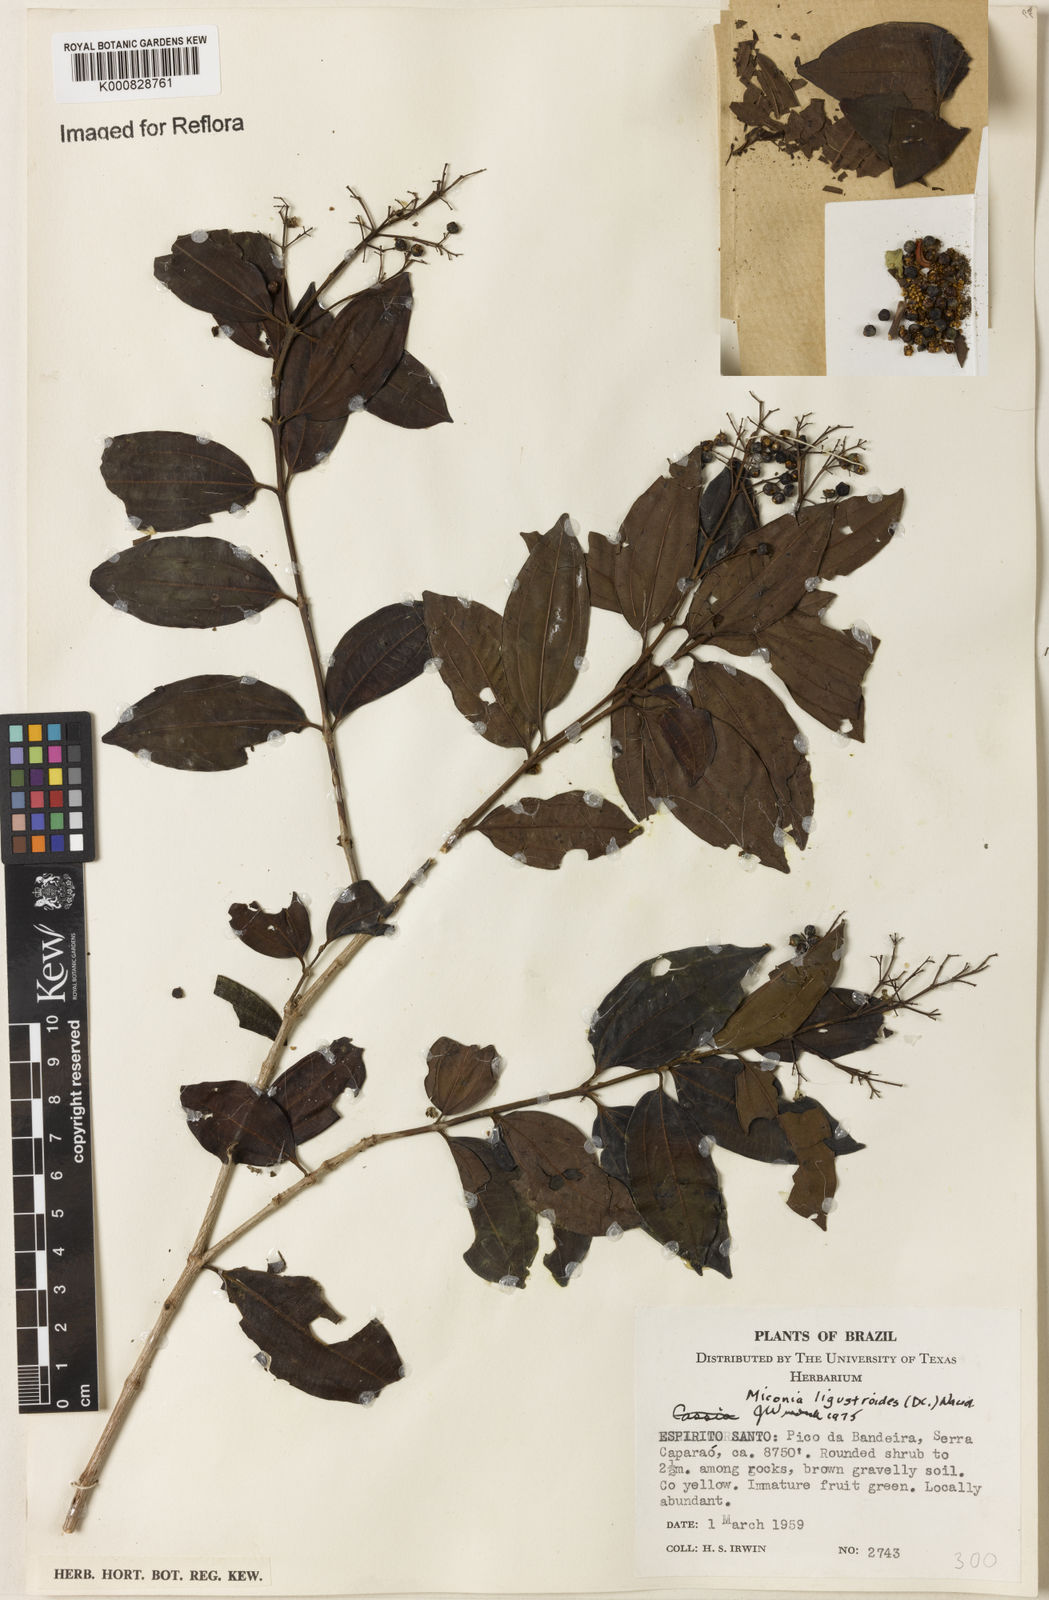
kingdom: Plantae
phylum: Tracheophyta
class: Magnoliopsida
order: Myrtales
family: Melastomataceae
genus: Miconia
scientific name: Miconia ligustroides
